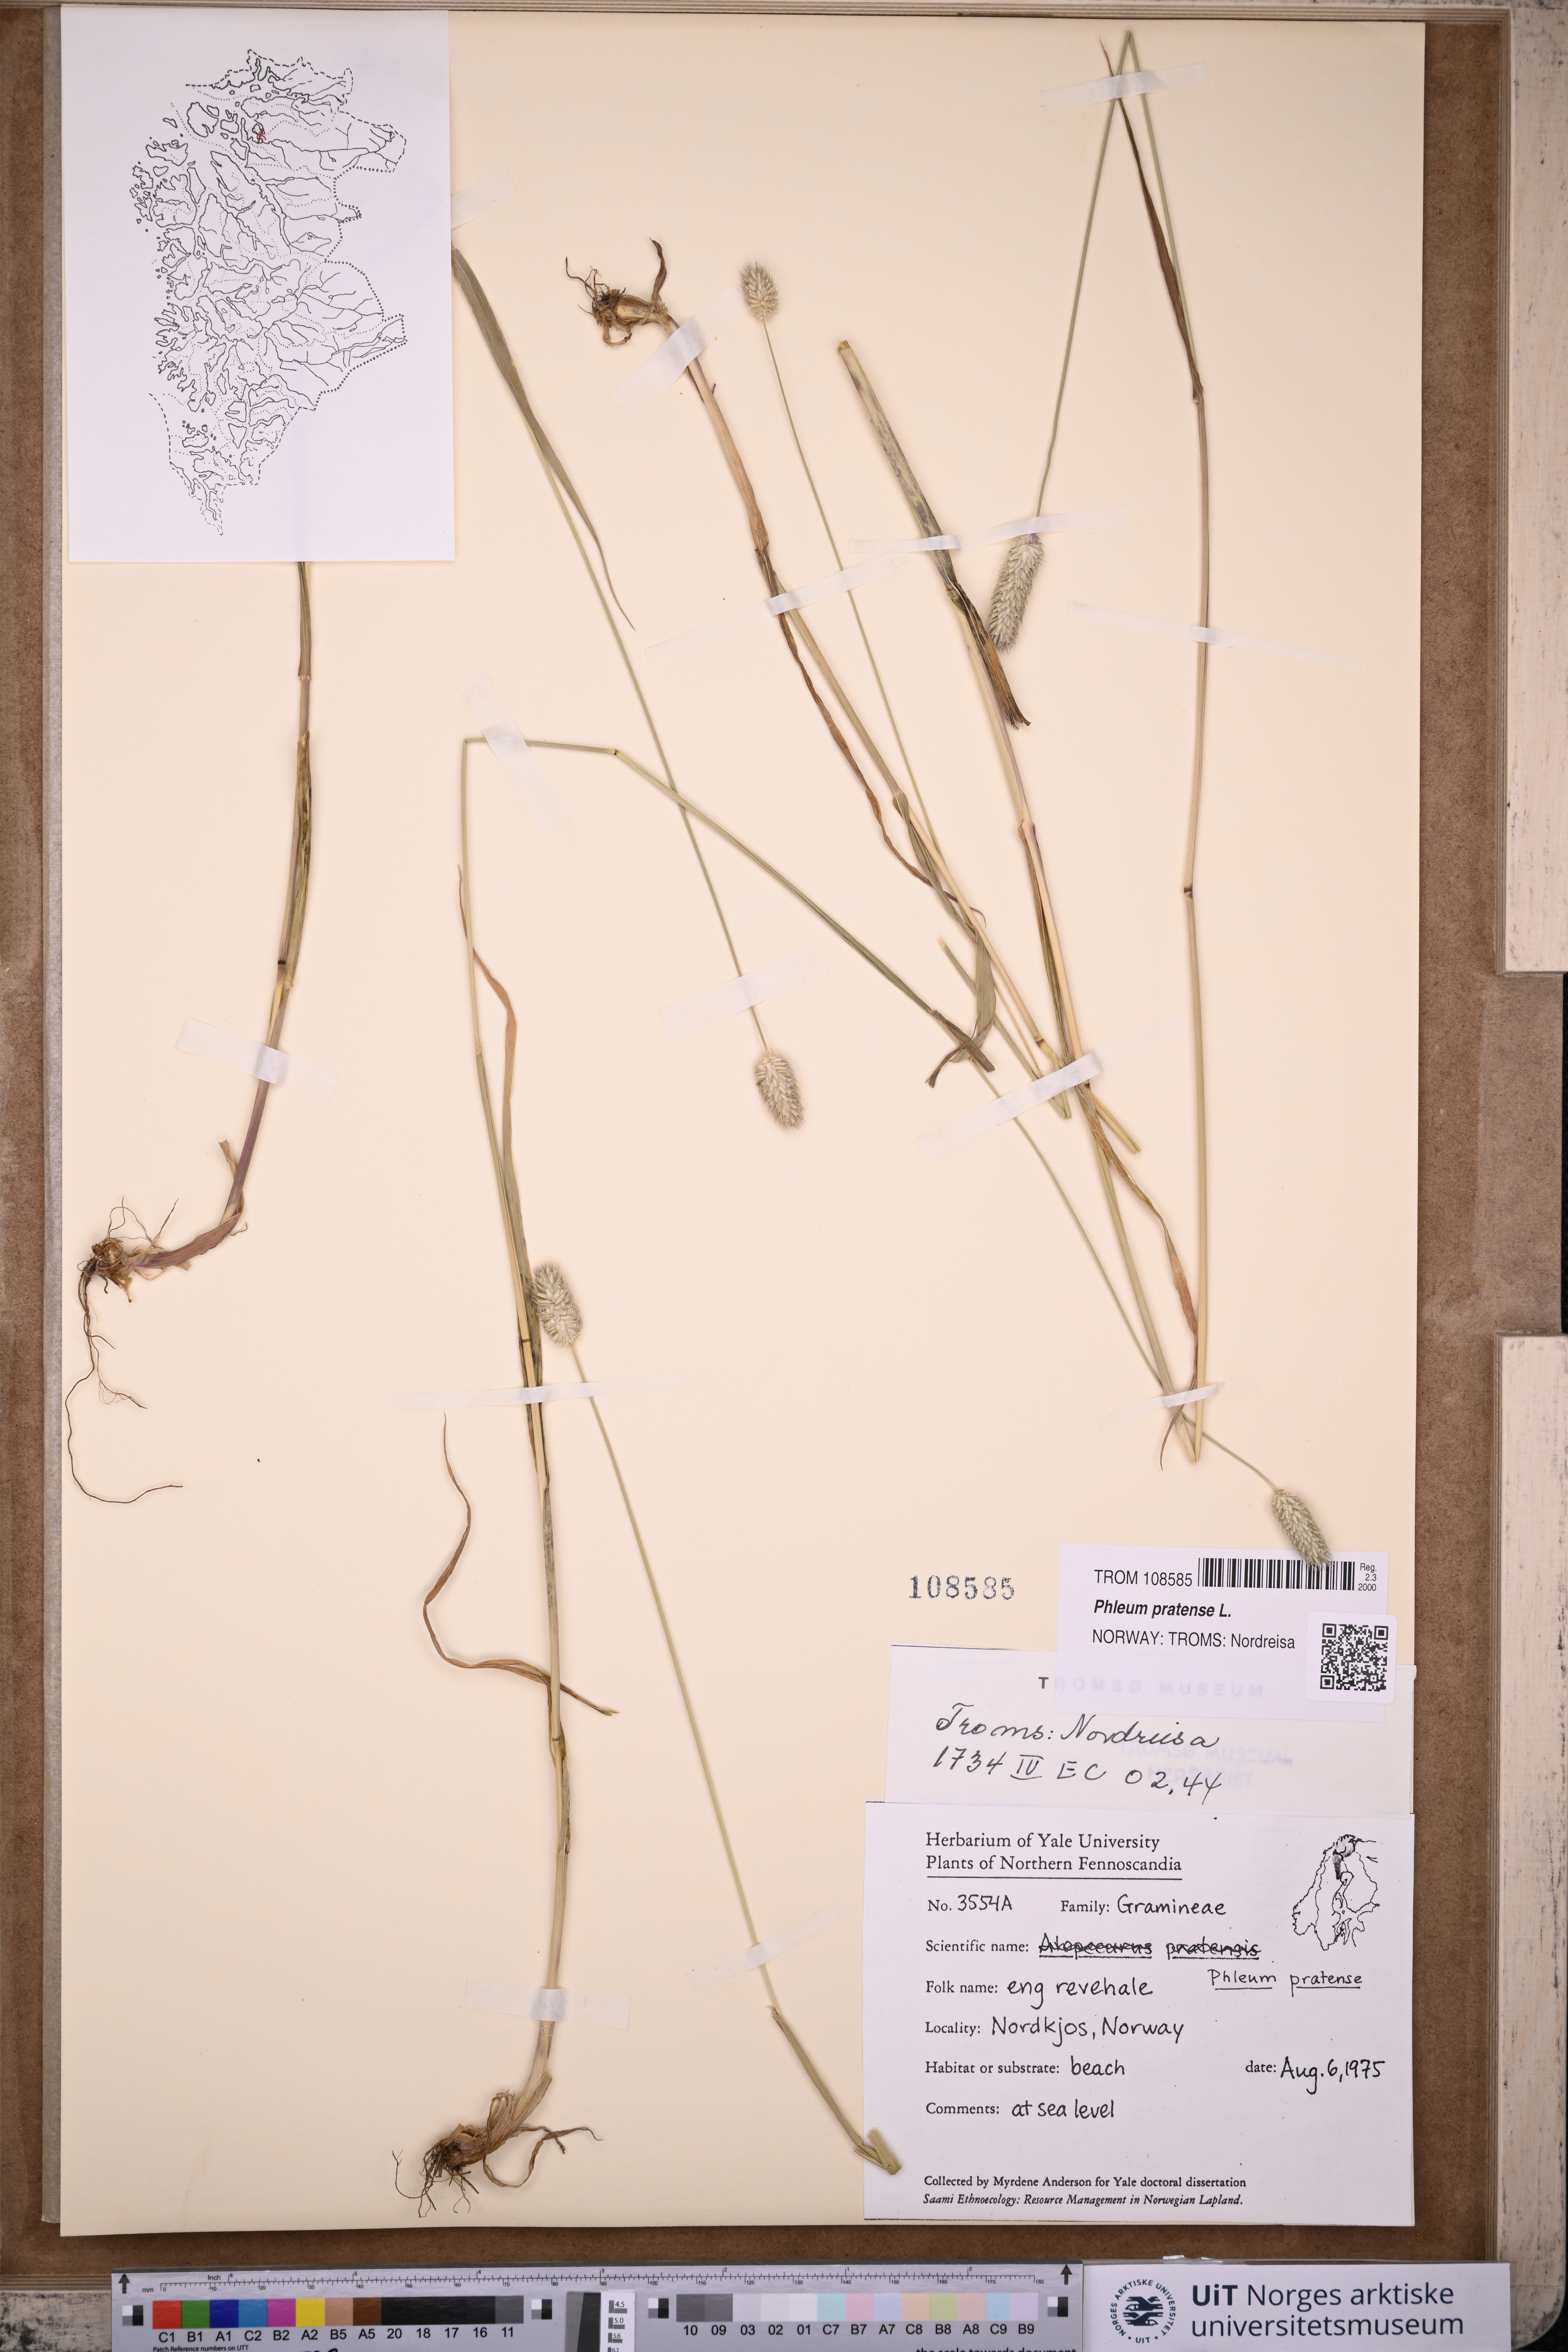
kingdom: Plantae
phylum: Tracheophyta
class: Liliopsida
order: Poales
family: Poaceae
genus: Phleum
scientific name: Phleum pratense
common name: Timothy grass
